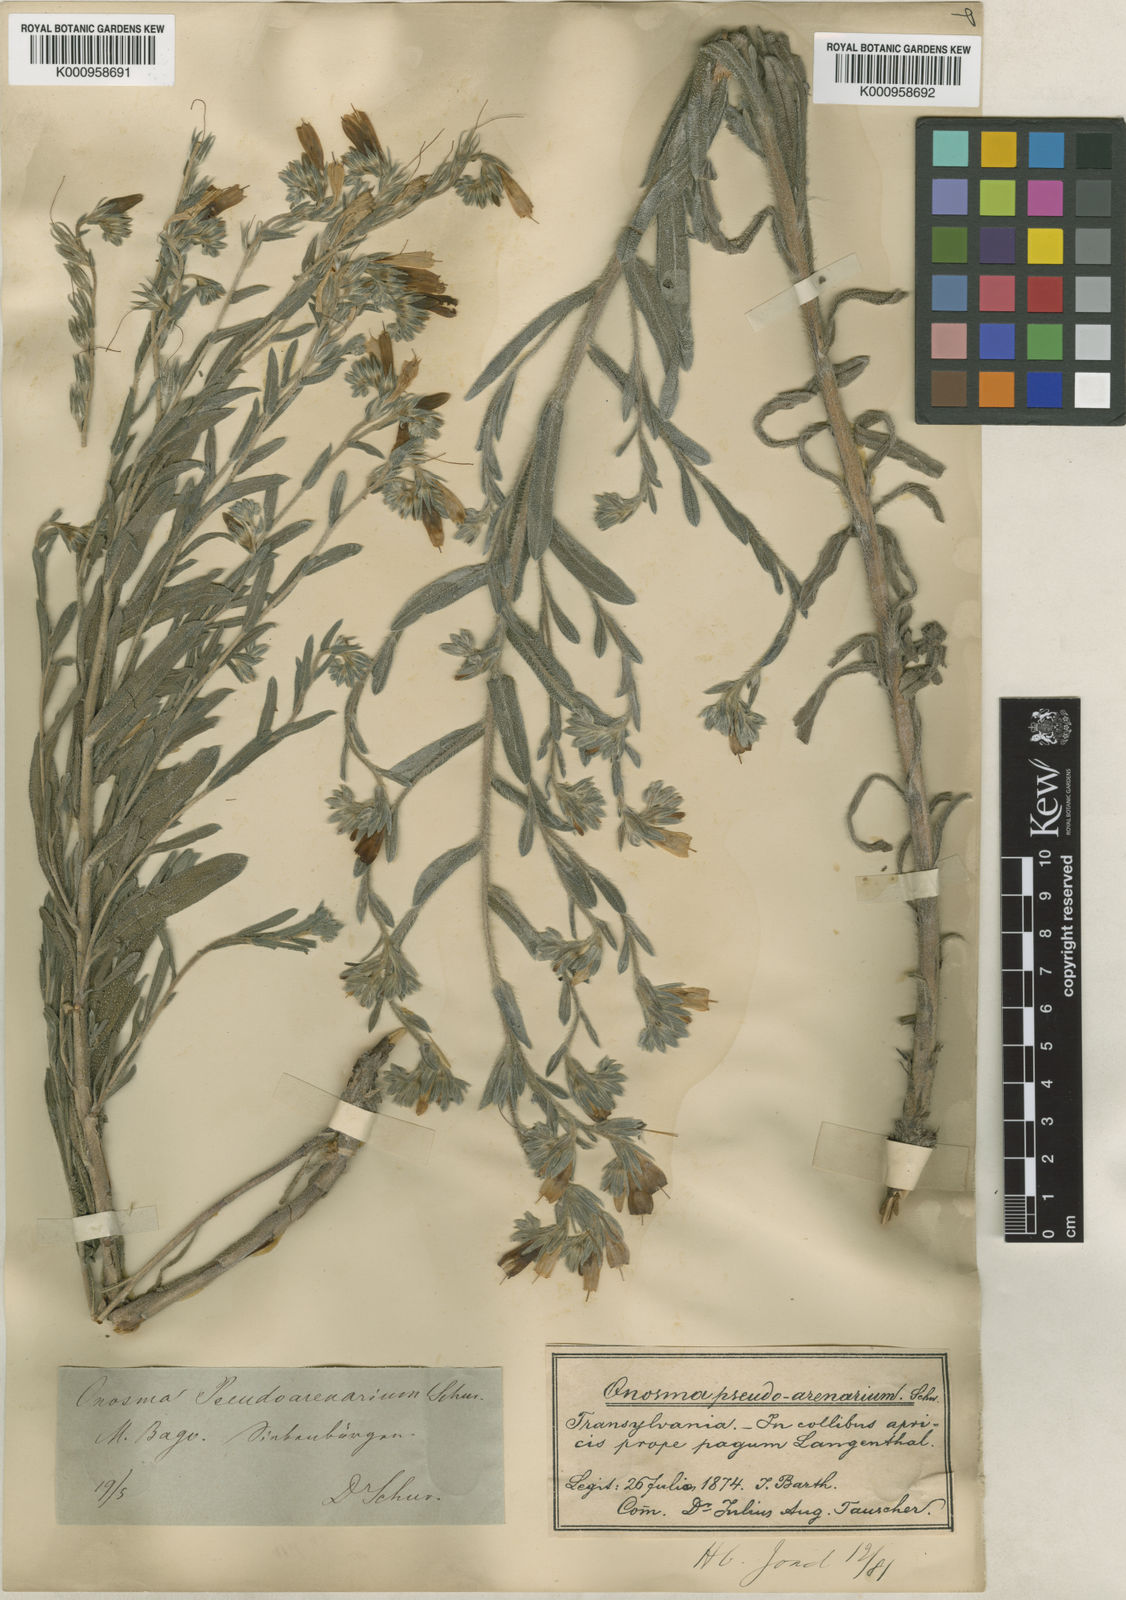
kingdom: Plantae
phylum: Tracheophyta
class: Magnoliopsida
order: Boraginales
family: Boraginaceae
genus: Onosma
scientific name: Onosma pseudoarenaria
